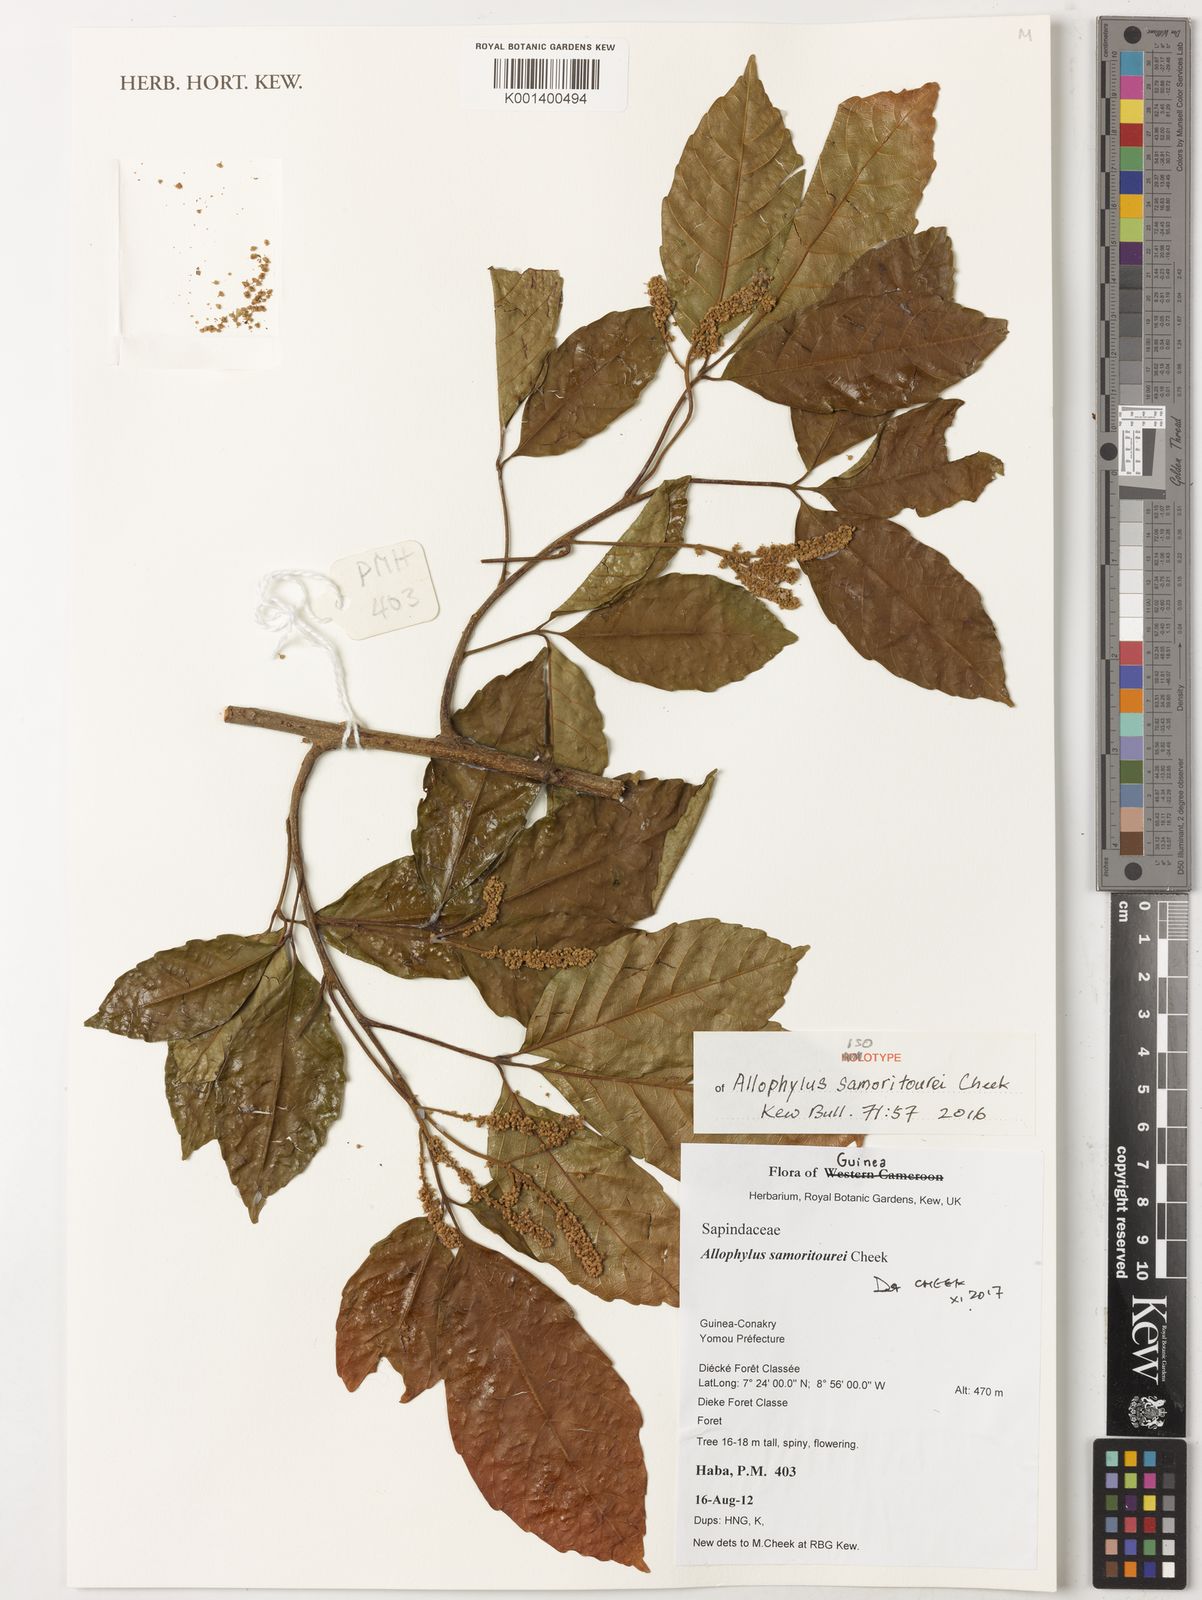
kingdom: Plantae
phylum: Tracheophyta
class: Magnoliopsida
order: Sapindales
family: Sapindaceae
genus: Allophylus
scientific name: Allophylus samoritourei
